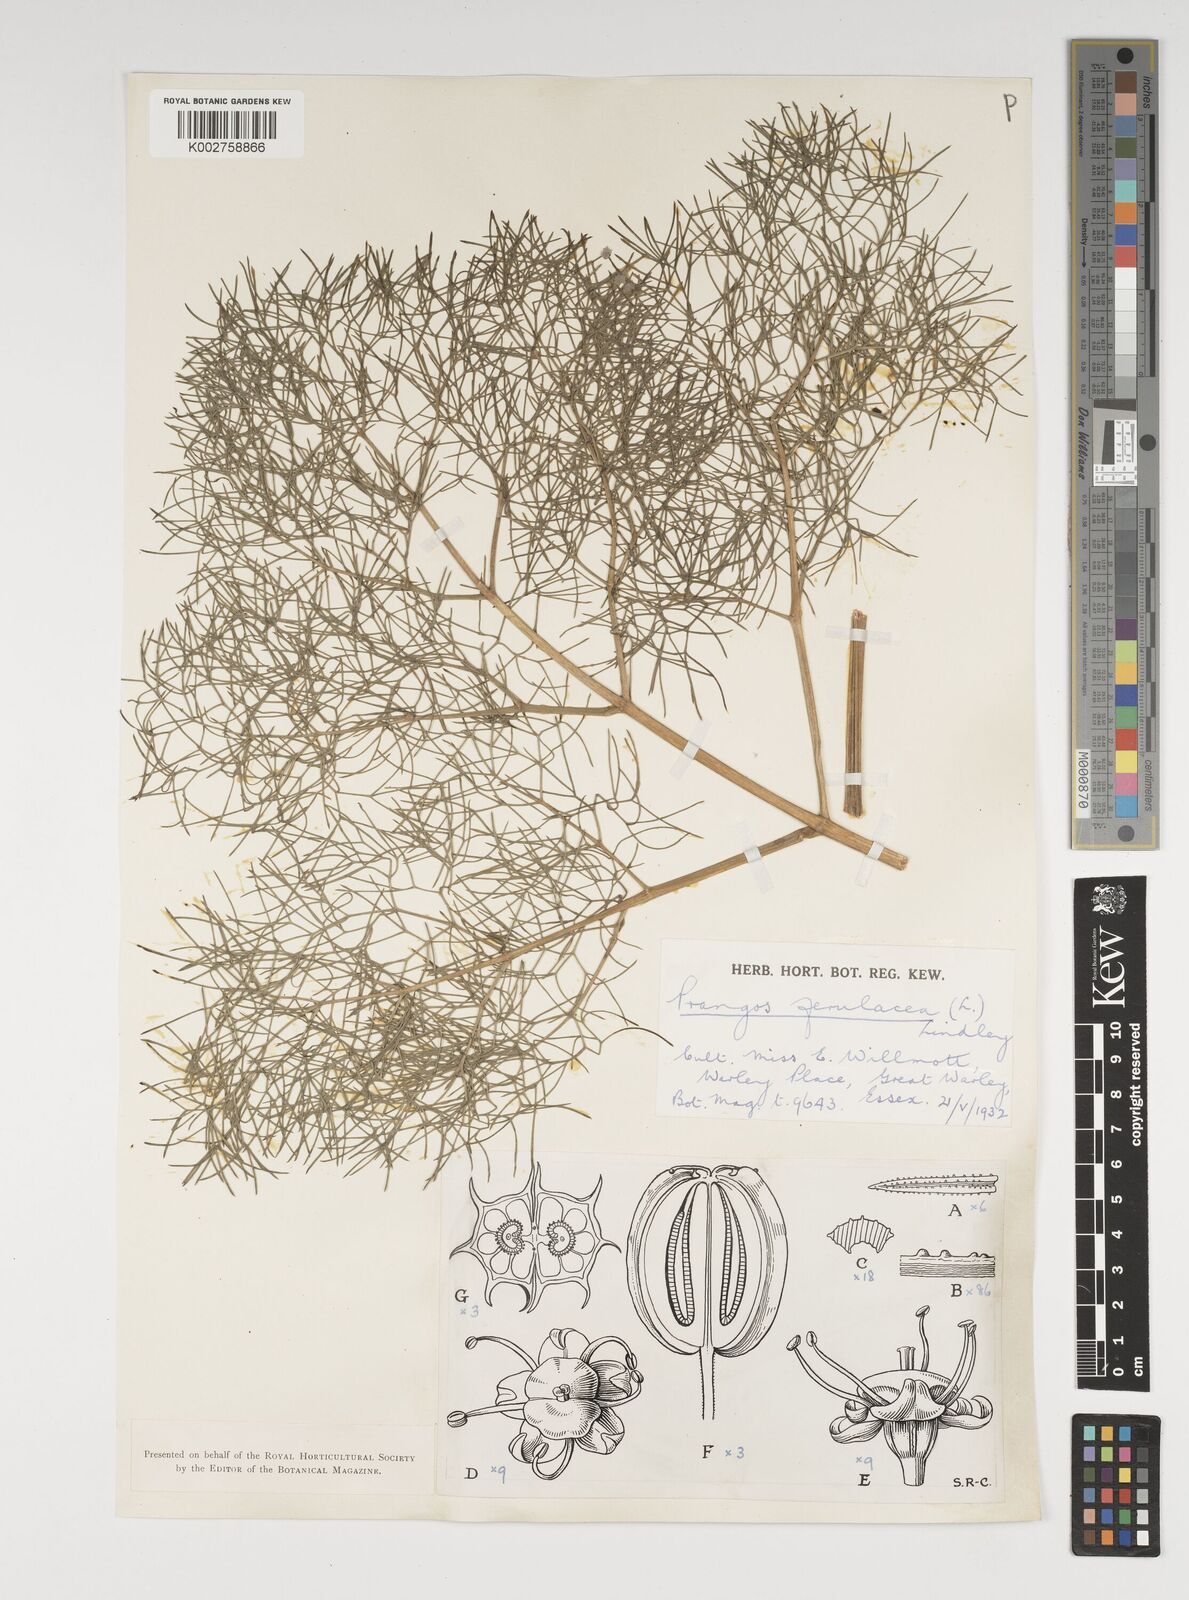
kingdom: Plantae
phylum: Tracheophyta
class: Magnoliopsida
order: Apiales
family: Apiaceae
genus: Prangos
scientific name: Prangos ferulacea
